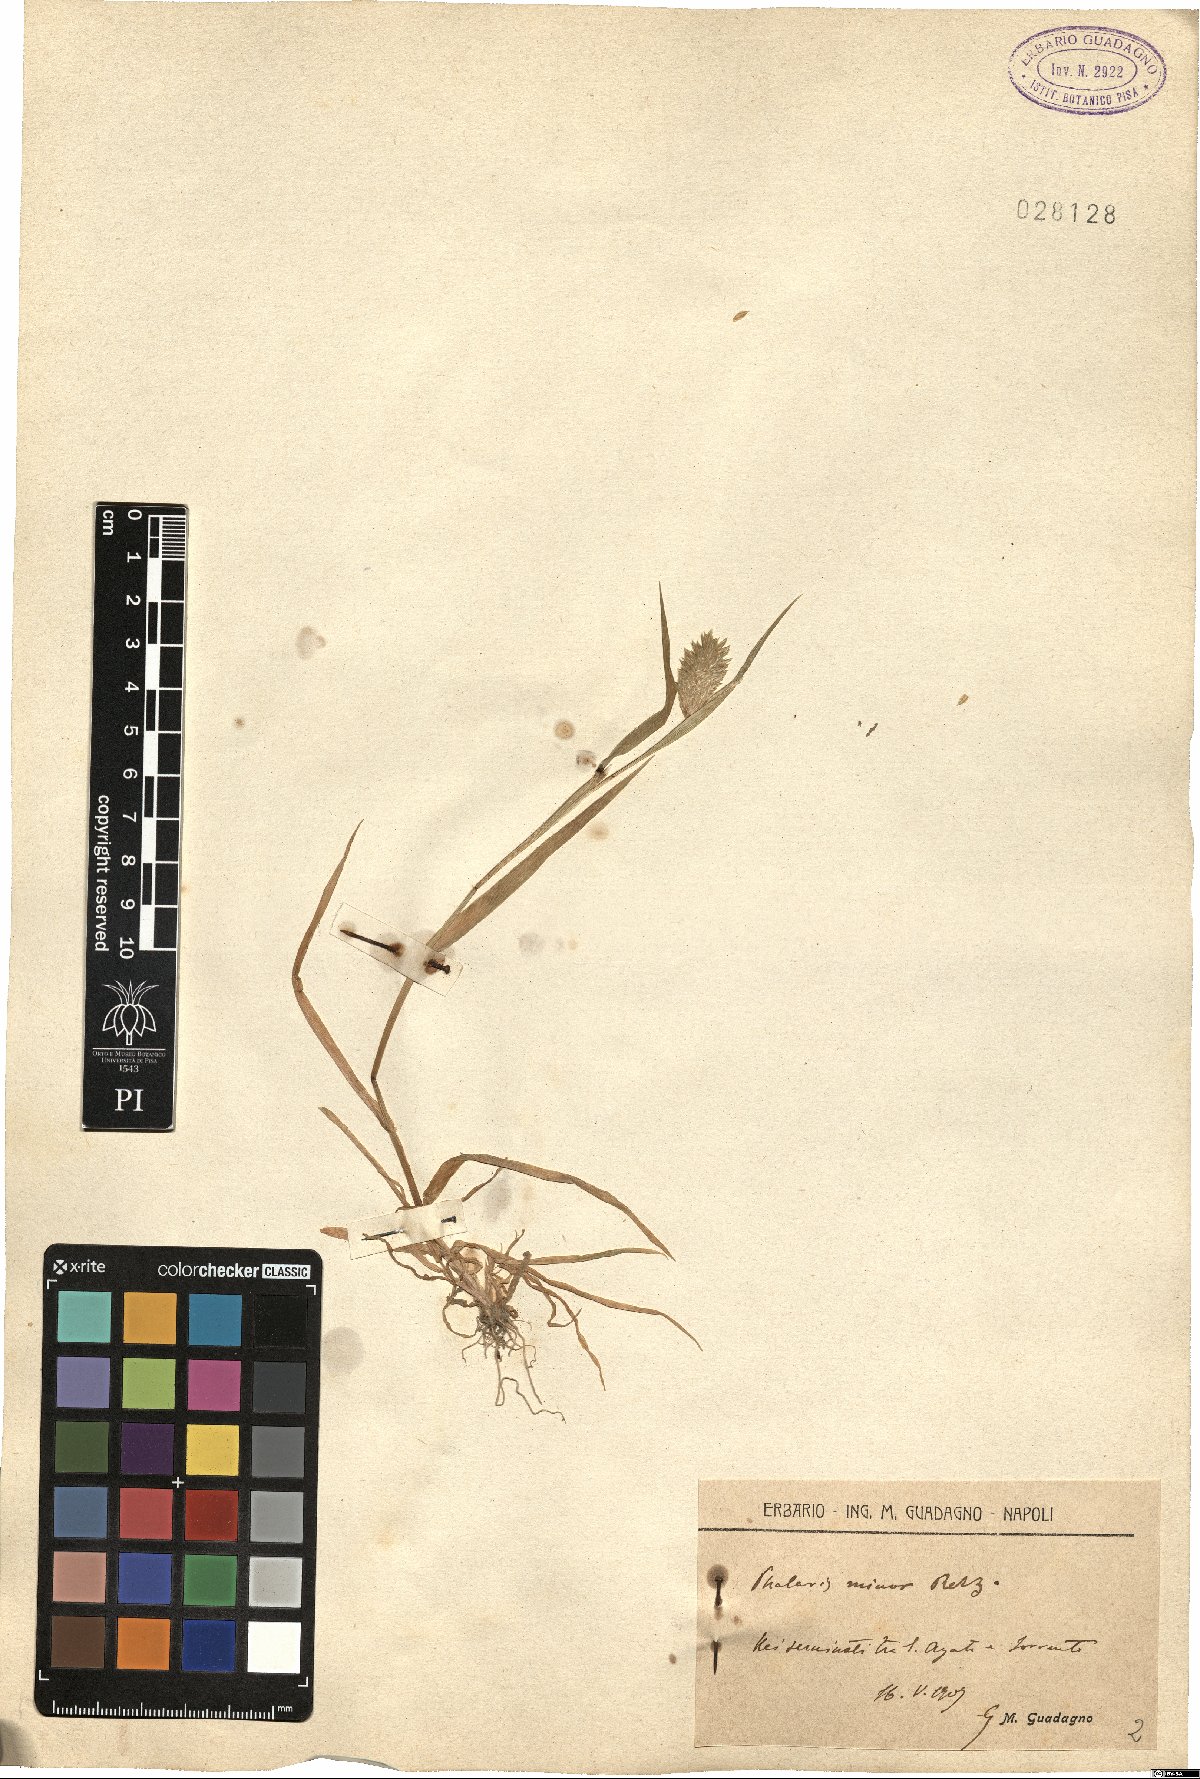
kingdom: Plantae
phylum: Tracheophyta
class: Liliopsida
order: Poales
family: Poaceae
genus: Phalaris
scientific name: Phalaris minor
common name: Littleseed canarygrass
